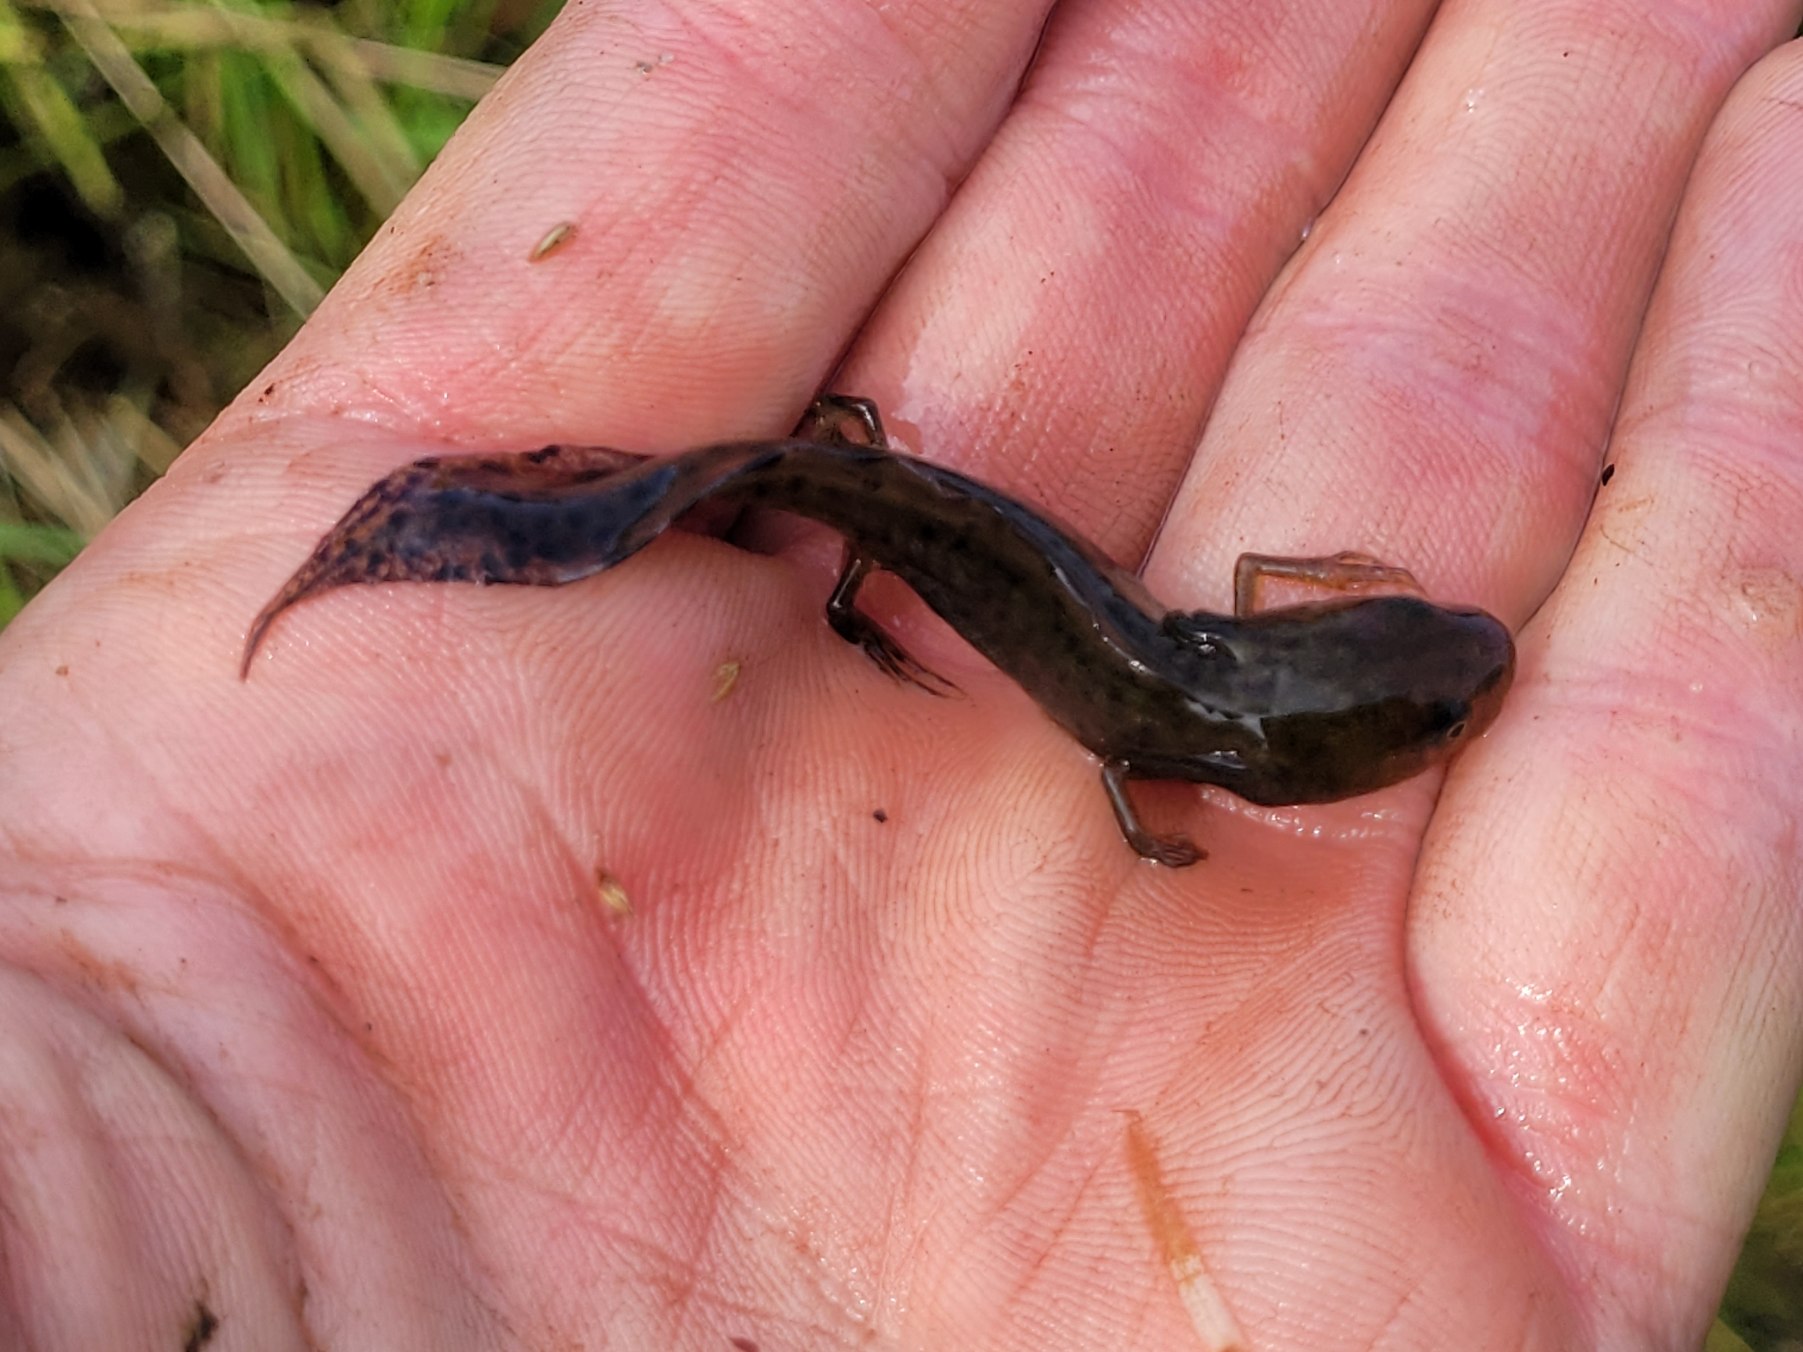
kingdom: Animalia
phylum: Chordata
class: Amphibia
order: Caudata
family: Salamandridae
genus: Triturus
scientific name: Triturus cristatus
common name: Stor vandsalamander
